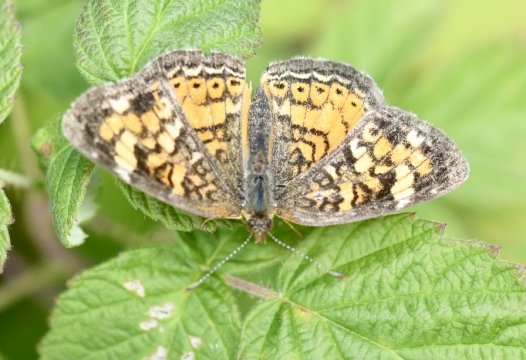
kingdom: Animalia
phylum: Arthropoda
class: Insecta
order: Lepidoptera
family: Nymphalidae
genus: Phyciodes
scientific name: Phyciodes tharos
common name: Northern Crescent
